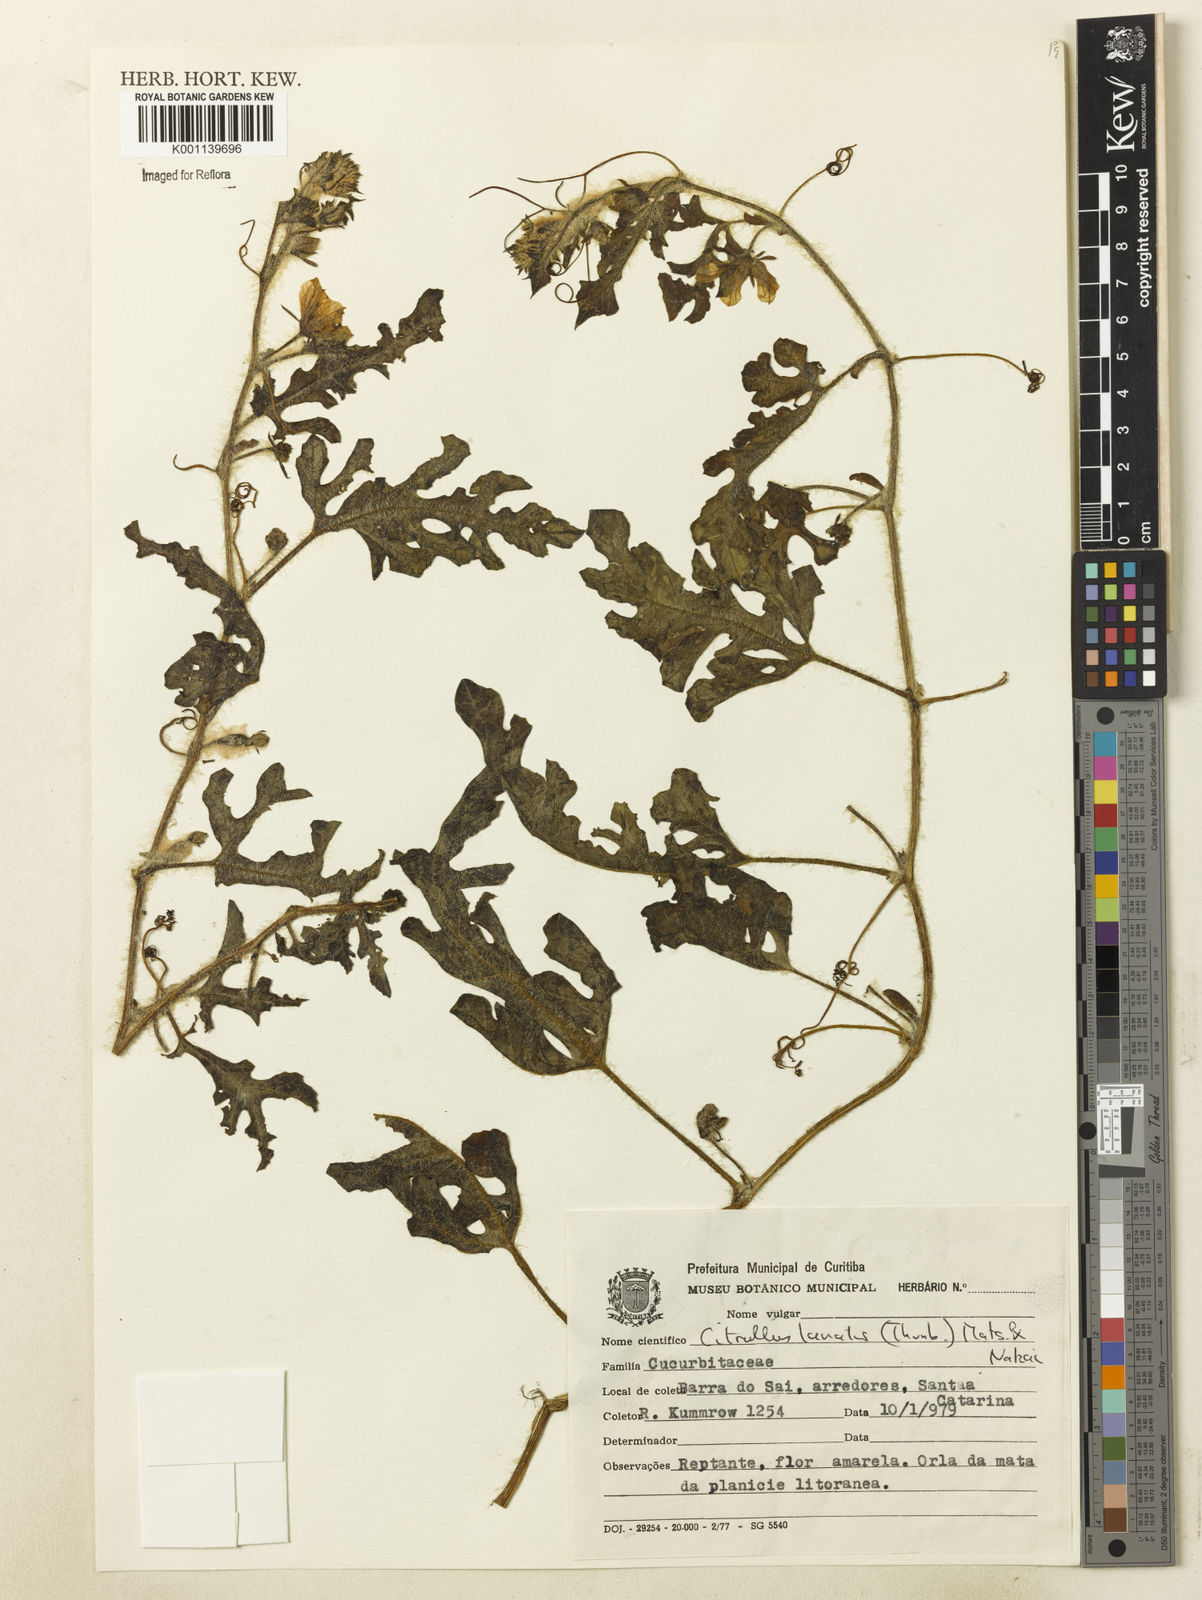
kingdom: Plantae
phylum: Tracheophyta
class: Magnoliopsida
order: Cucurbitales
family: Cucurbitaceae
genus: Citrullus
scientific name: Citrullus lanatus
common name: Watermelon
